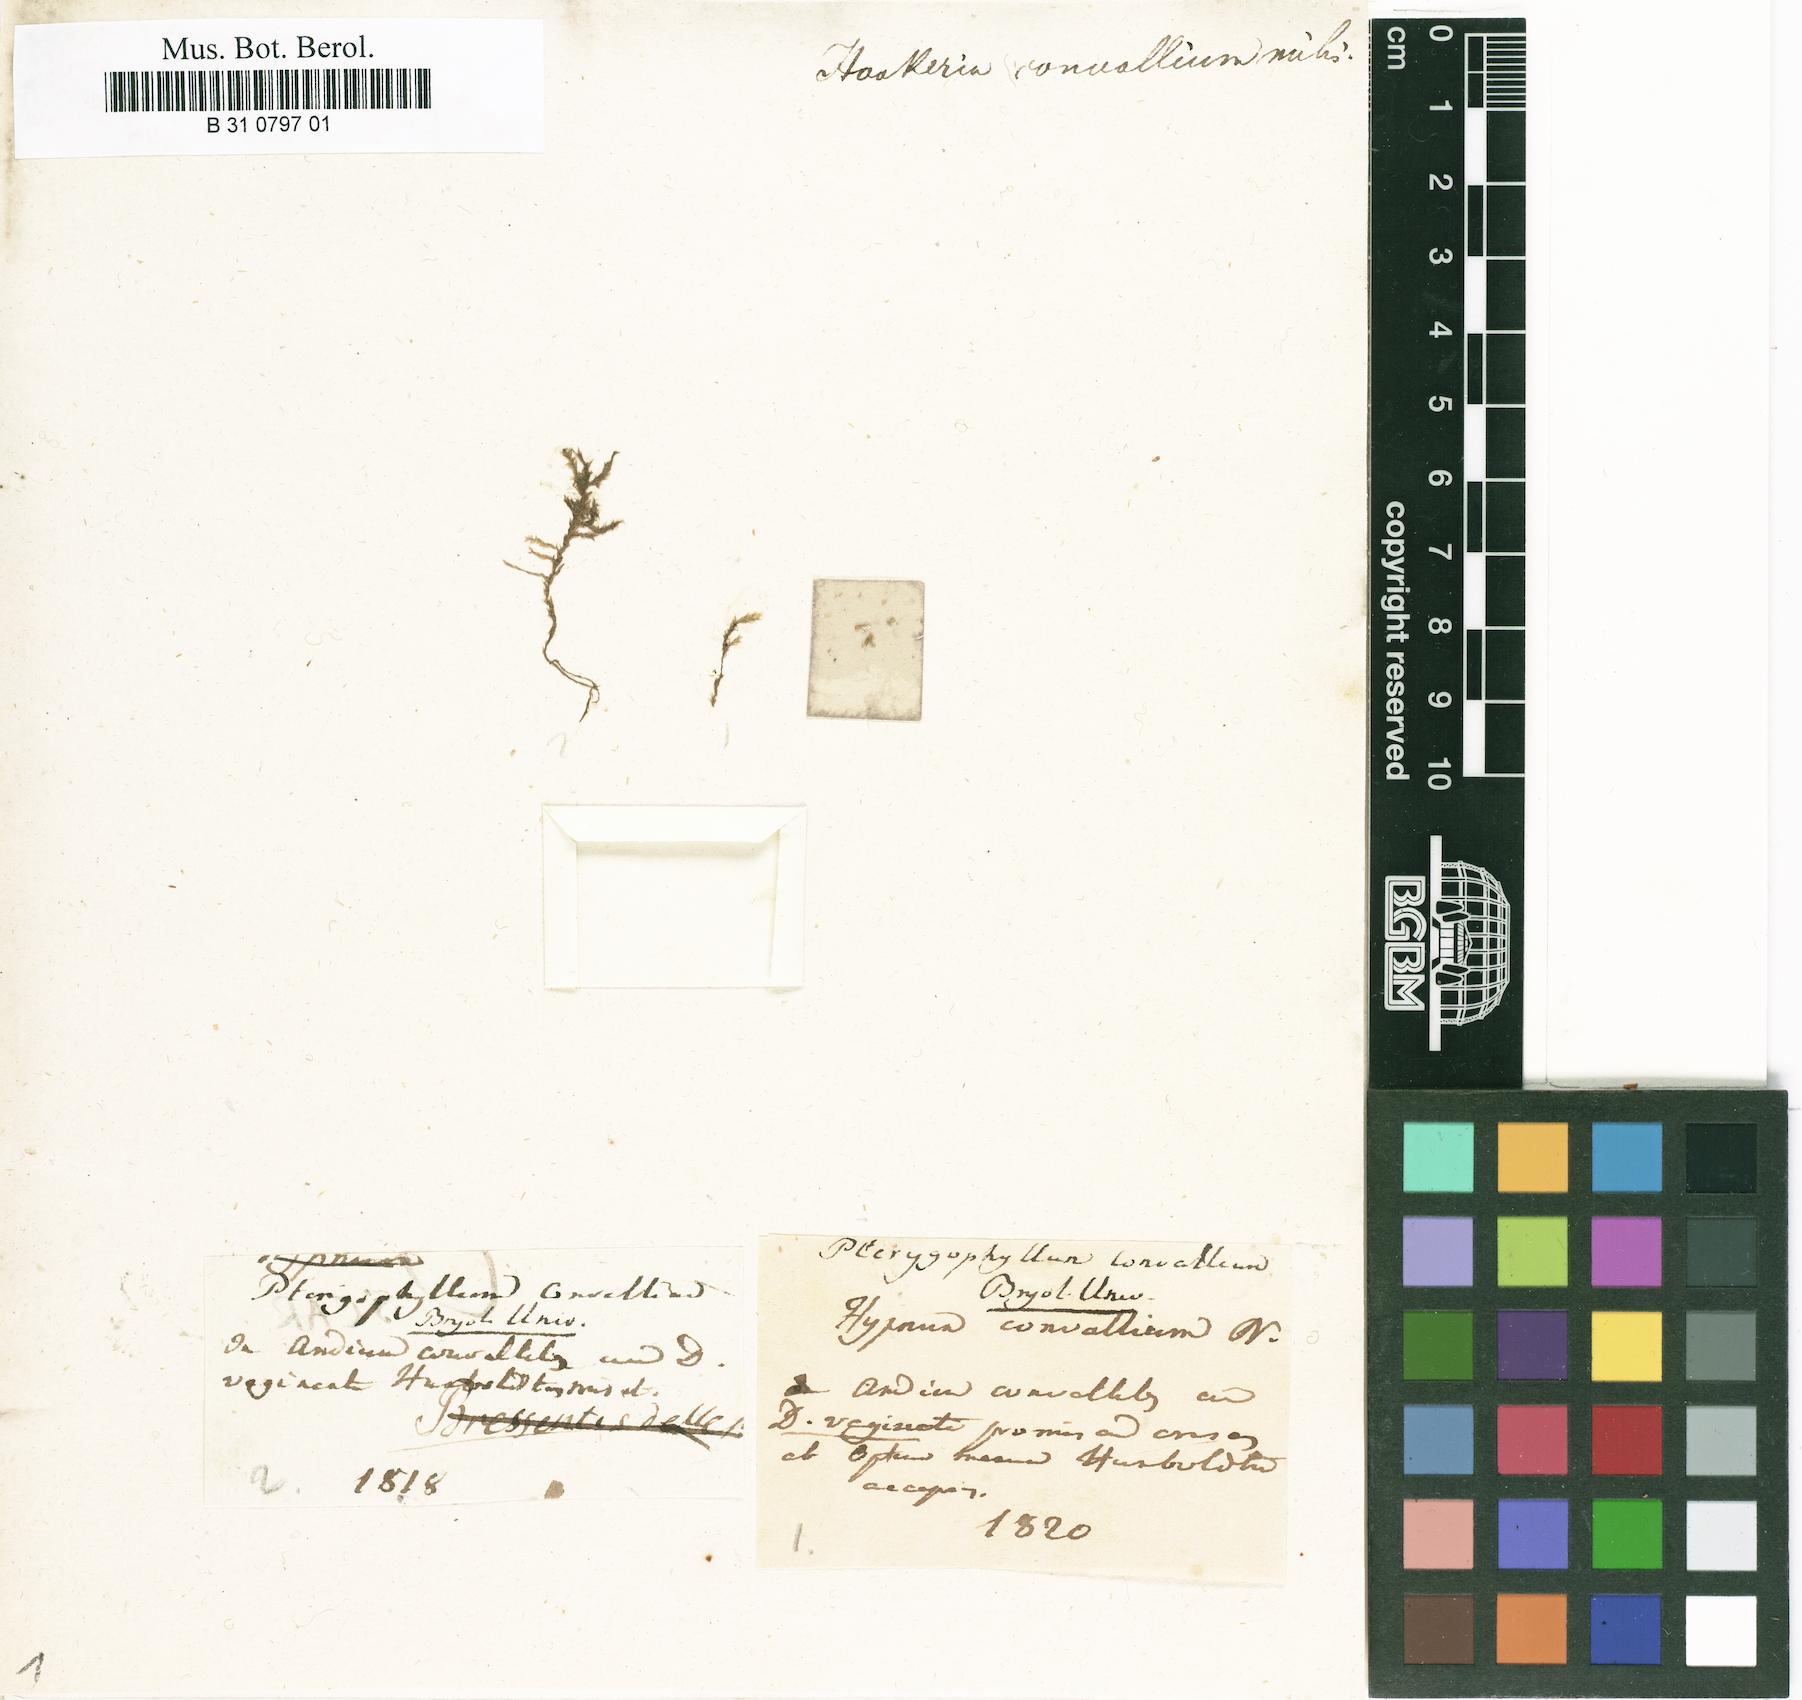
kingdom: Plantae
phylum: Bryophyta
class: Bryopsida
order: Hookeriales
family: Pilotrichaceae
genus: Lepidopilum
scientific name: Lepidopilum convallium
